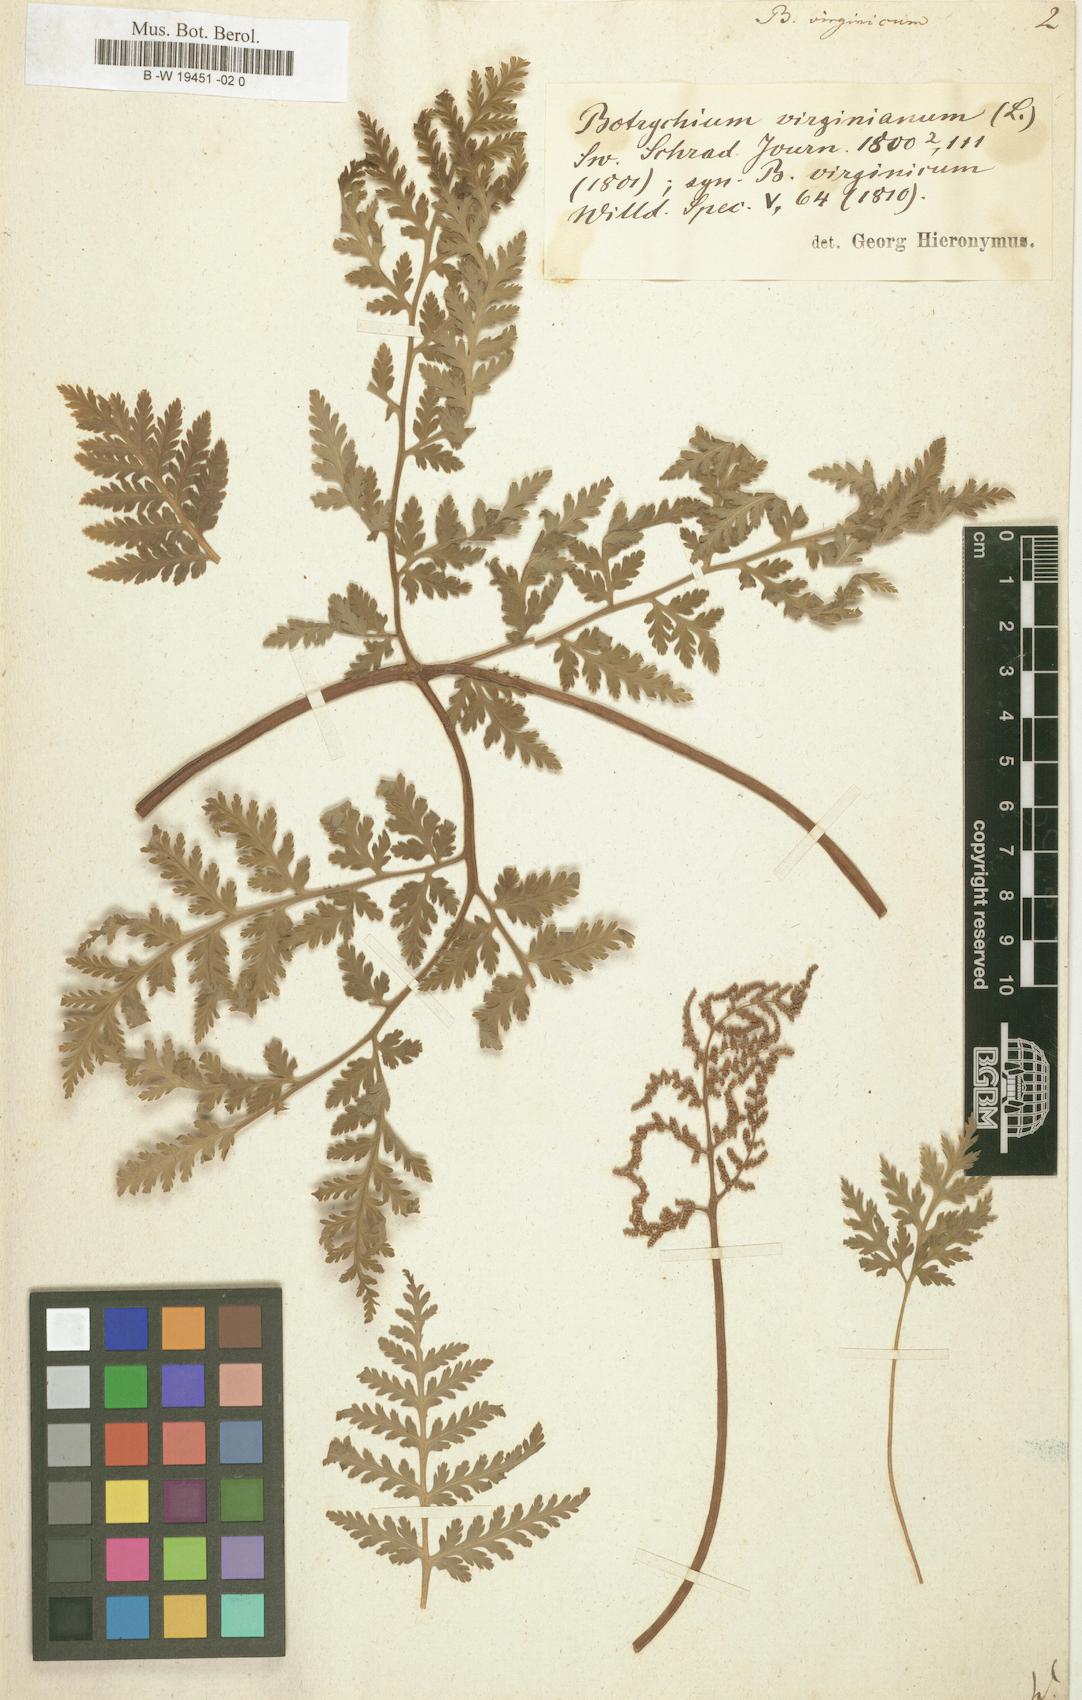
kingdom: Plantae
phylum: Tracheophyta
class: Polypodiopsida
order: Ophioglossales
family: Ophioglossaceae
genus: Botrypus
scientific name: Botrypus virginianus
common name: Common grapefern
